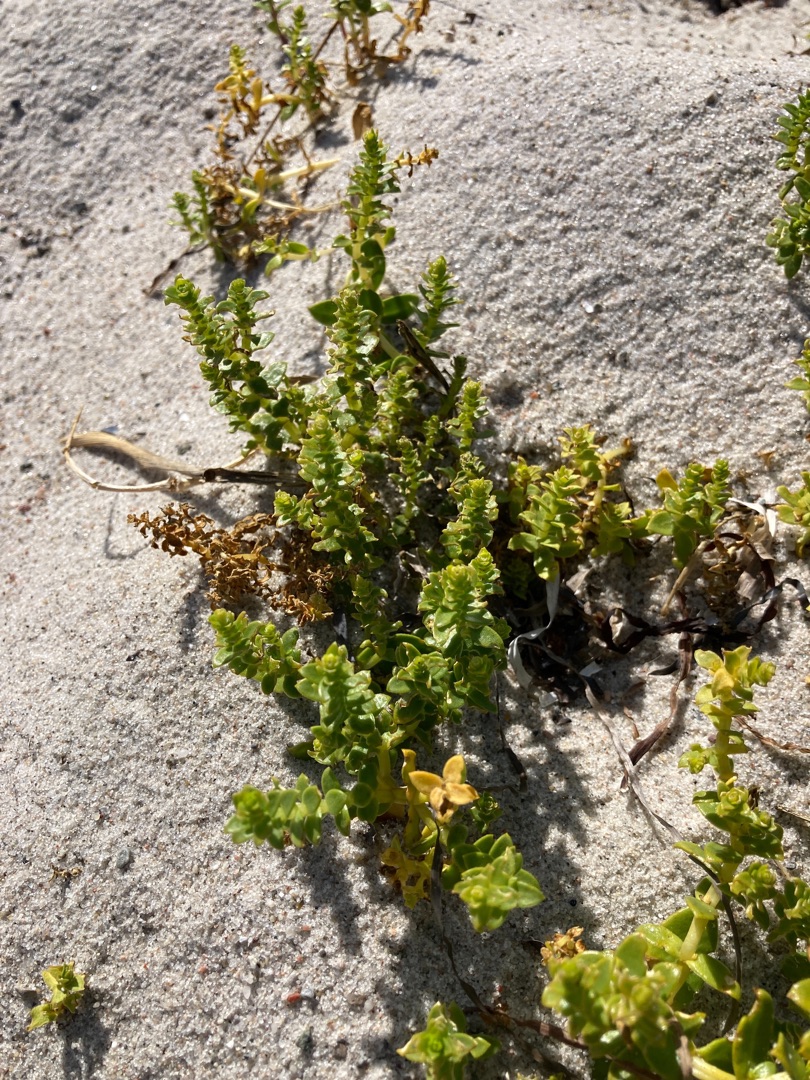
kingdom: Plantae
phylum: Tracheophyta
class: Magnoliopsida
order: Caryophyllales
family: Caryophyllaceae
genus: Honckenya
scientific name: Honckenya peploides
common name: Strandarve
